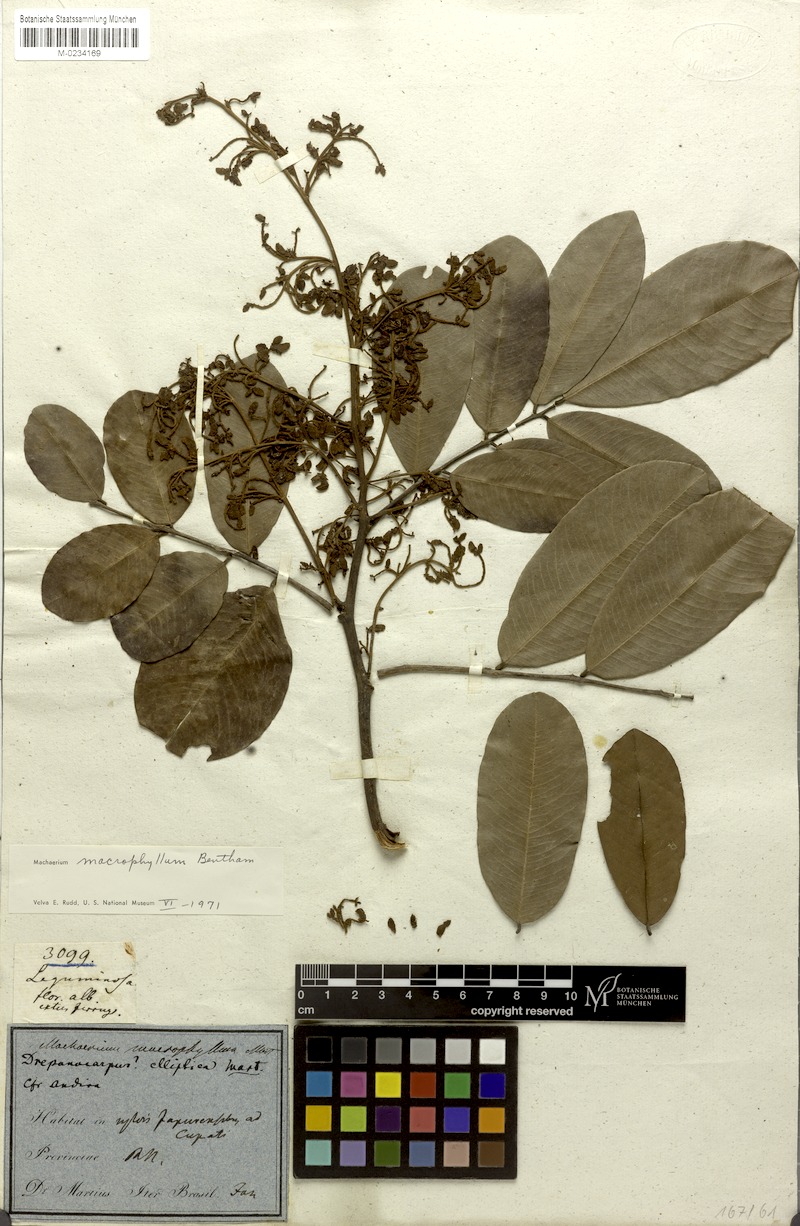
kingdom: Plantae
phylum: Tracheophyta
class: Magnoliopsida
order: Fabales
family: Fabaceae
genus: Machaerium
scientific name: Machaerium macrophyllum
